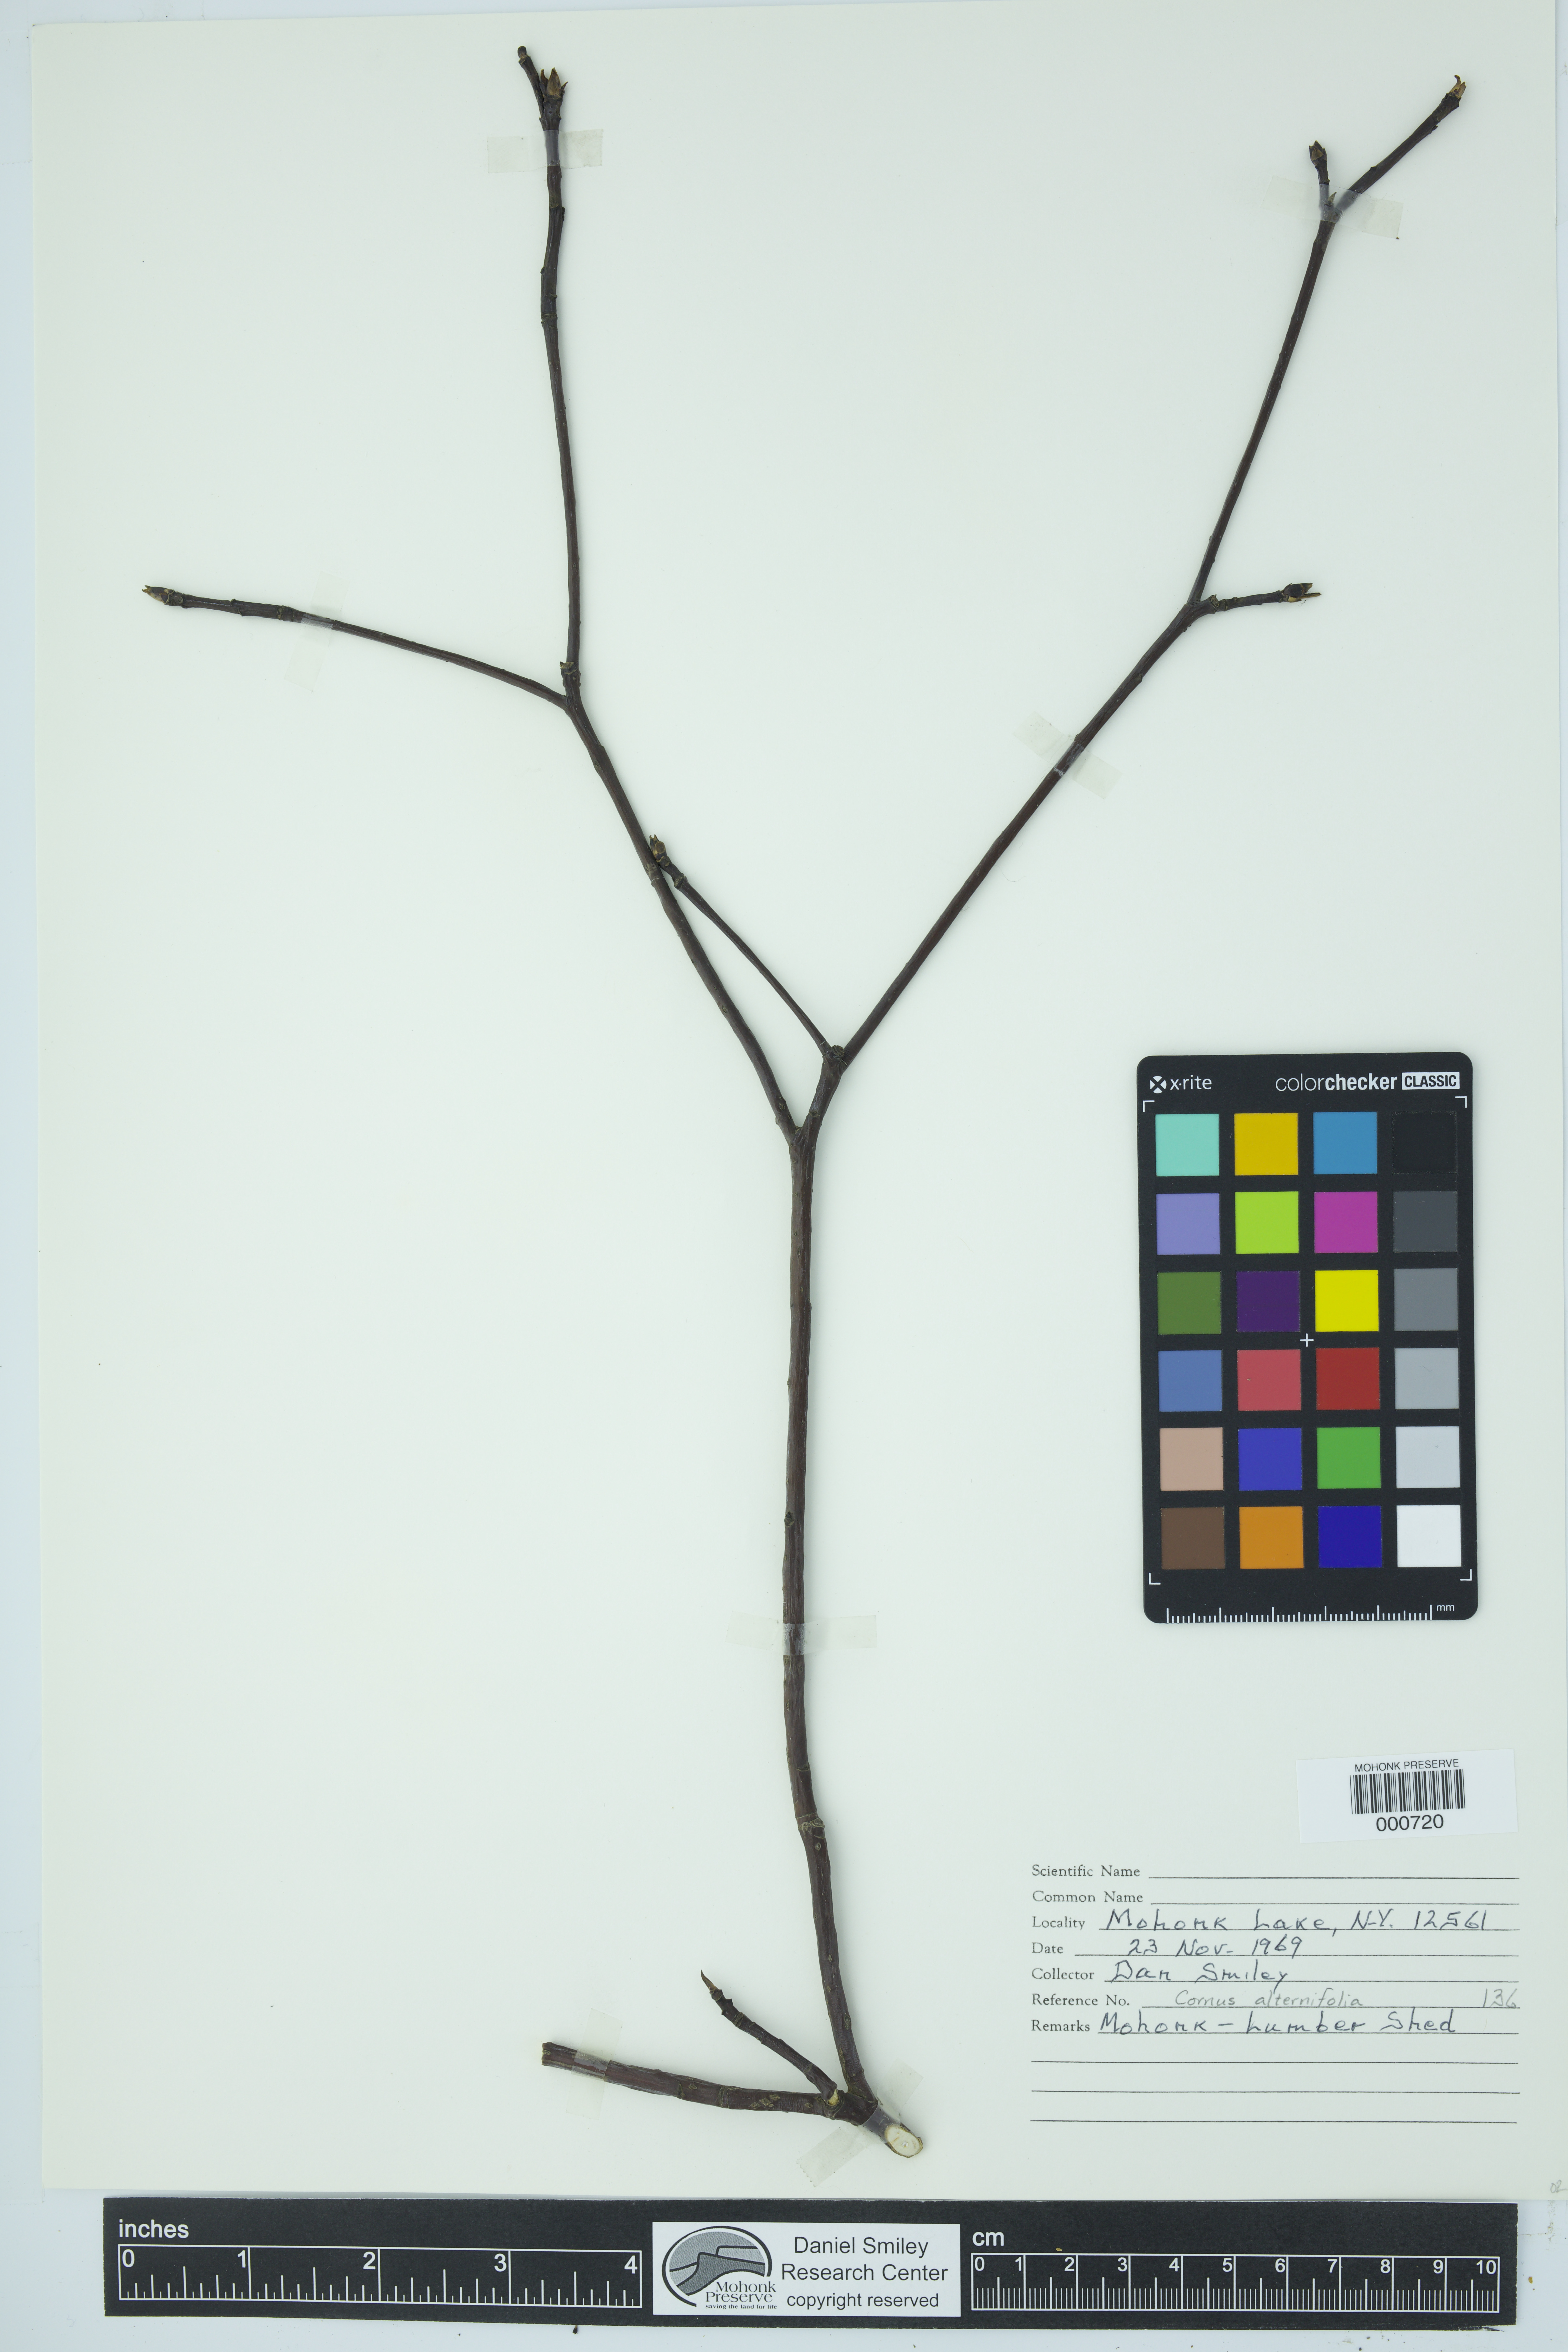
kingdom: Plantae
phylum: Tracheophyta
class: Magnoliopsida
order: Cornales
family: Cornaceae
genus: Cornus
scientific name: Cornus alternifolia
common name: Pagoda dogwood
